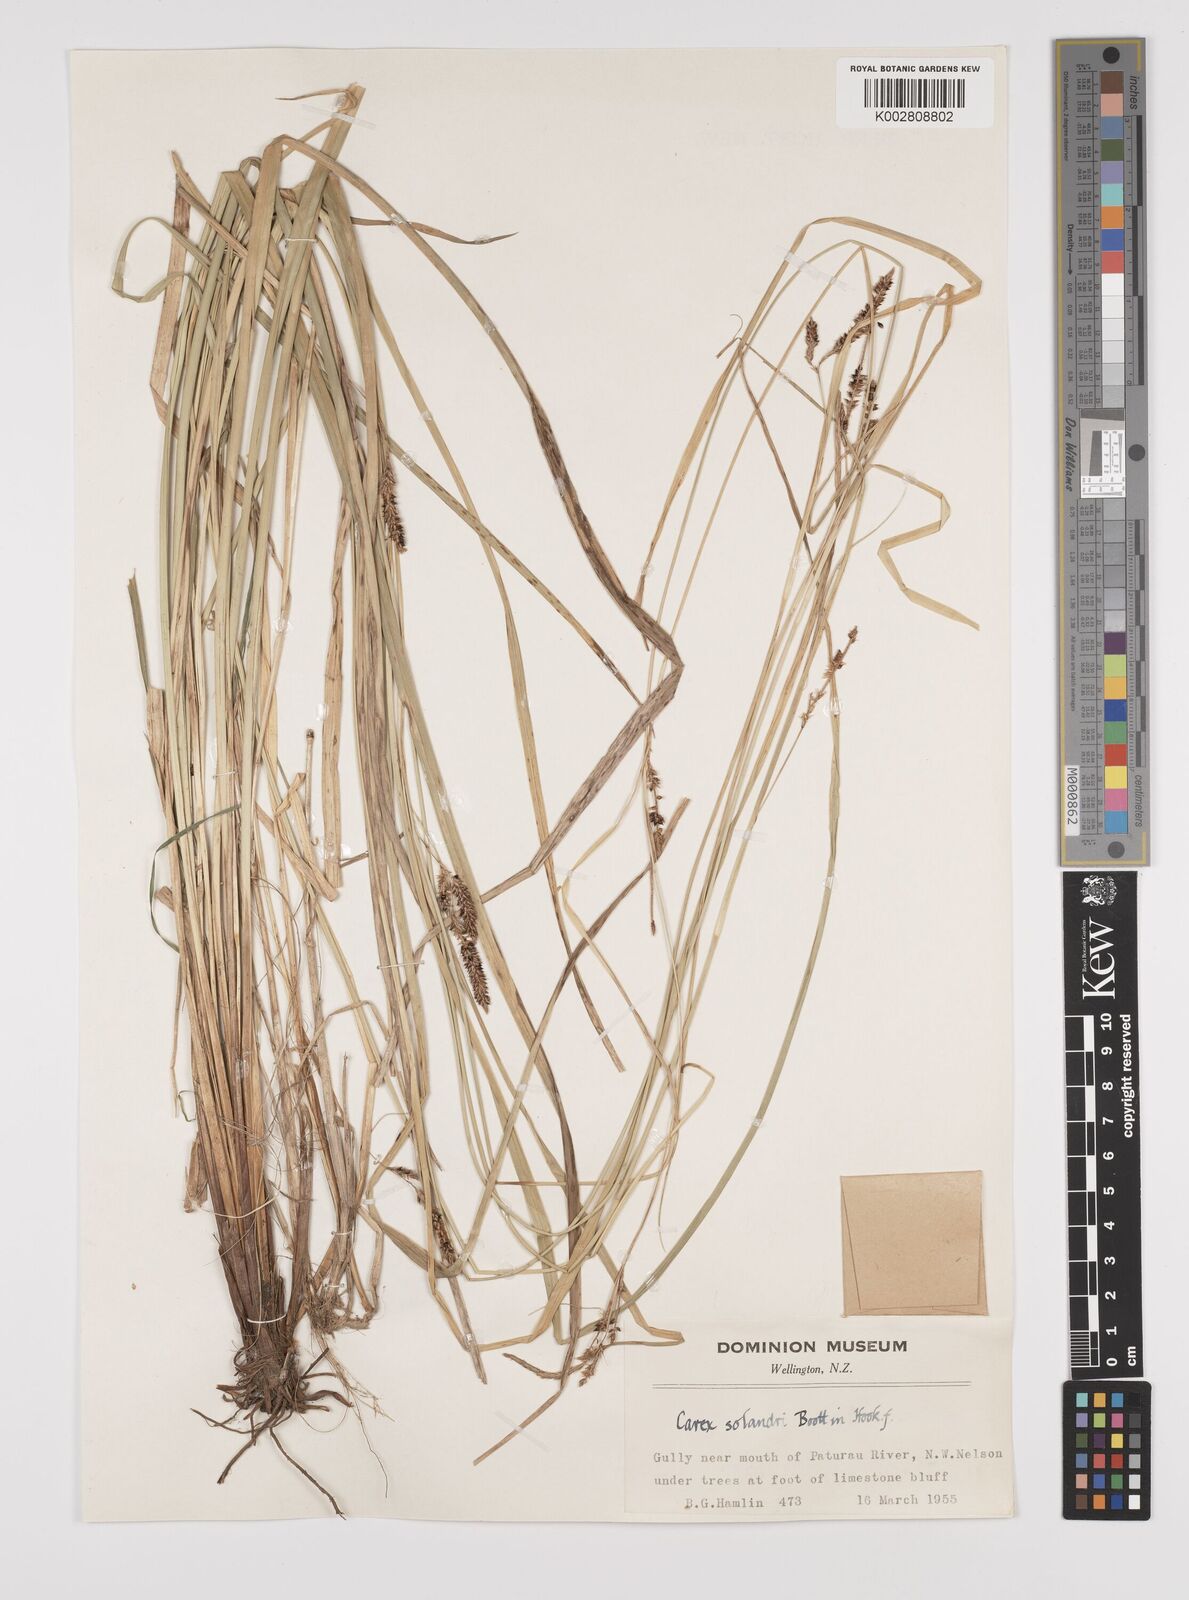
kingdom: Plantae
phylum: Tracheophyta
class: Liliopsida
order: Poales
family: Cyperaceae
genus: Carex
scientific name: Carex dissita
